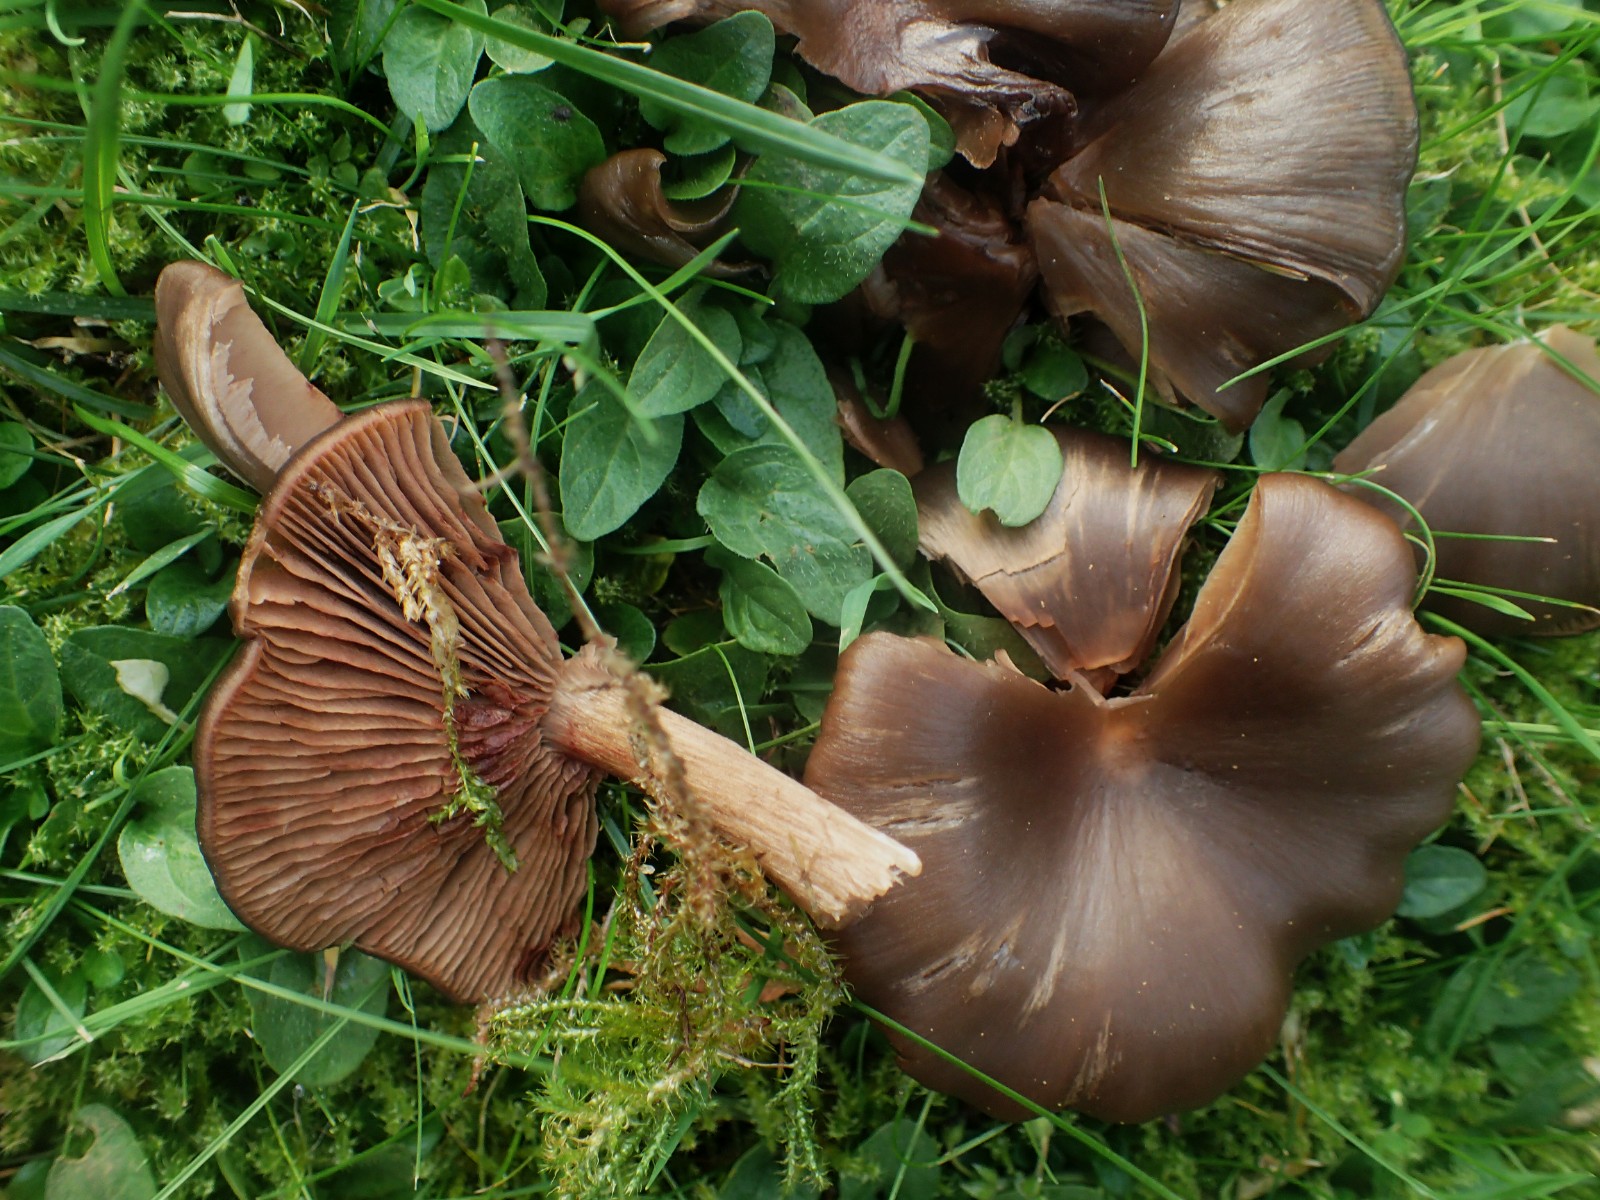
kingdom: Fungi
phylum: Basidiomycota
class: Agaricomycetes
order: Agaricales
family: Entolomataceae
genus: Entoloma
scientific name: Entoloma
